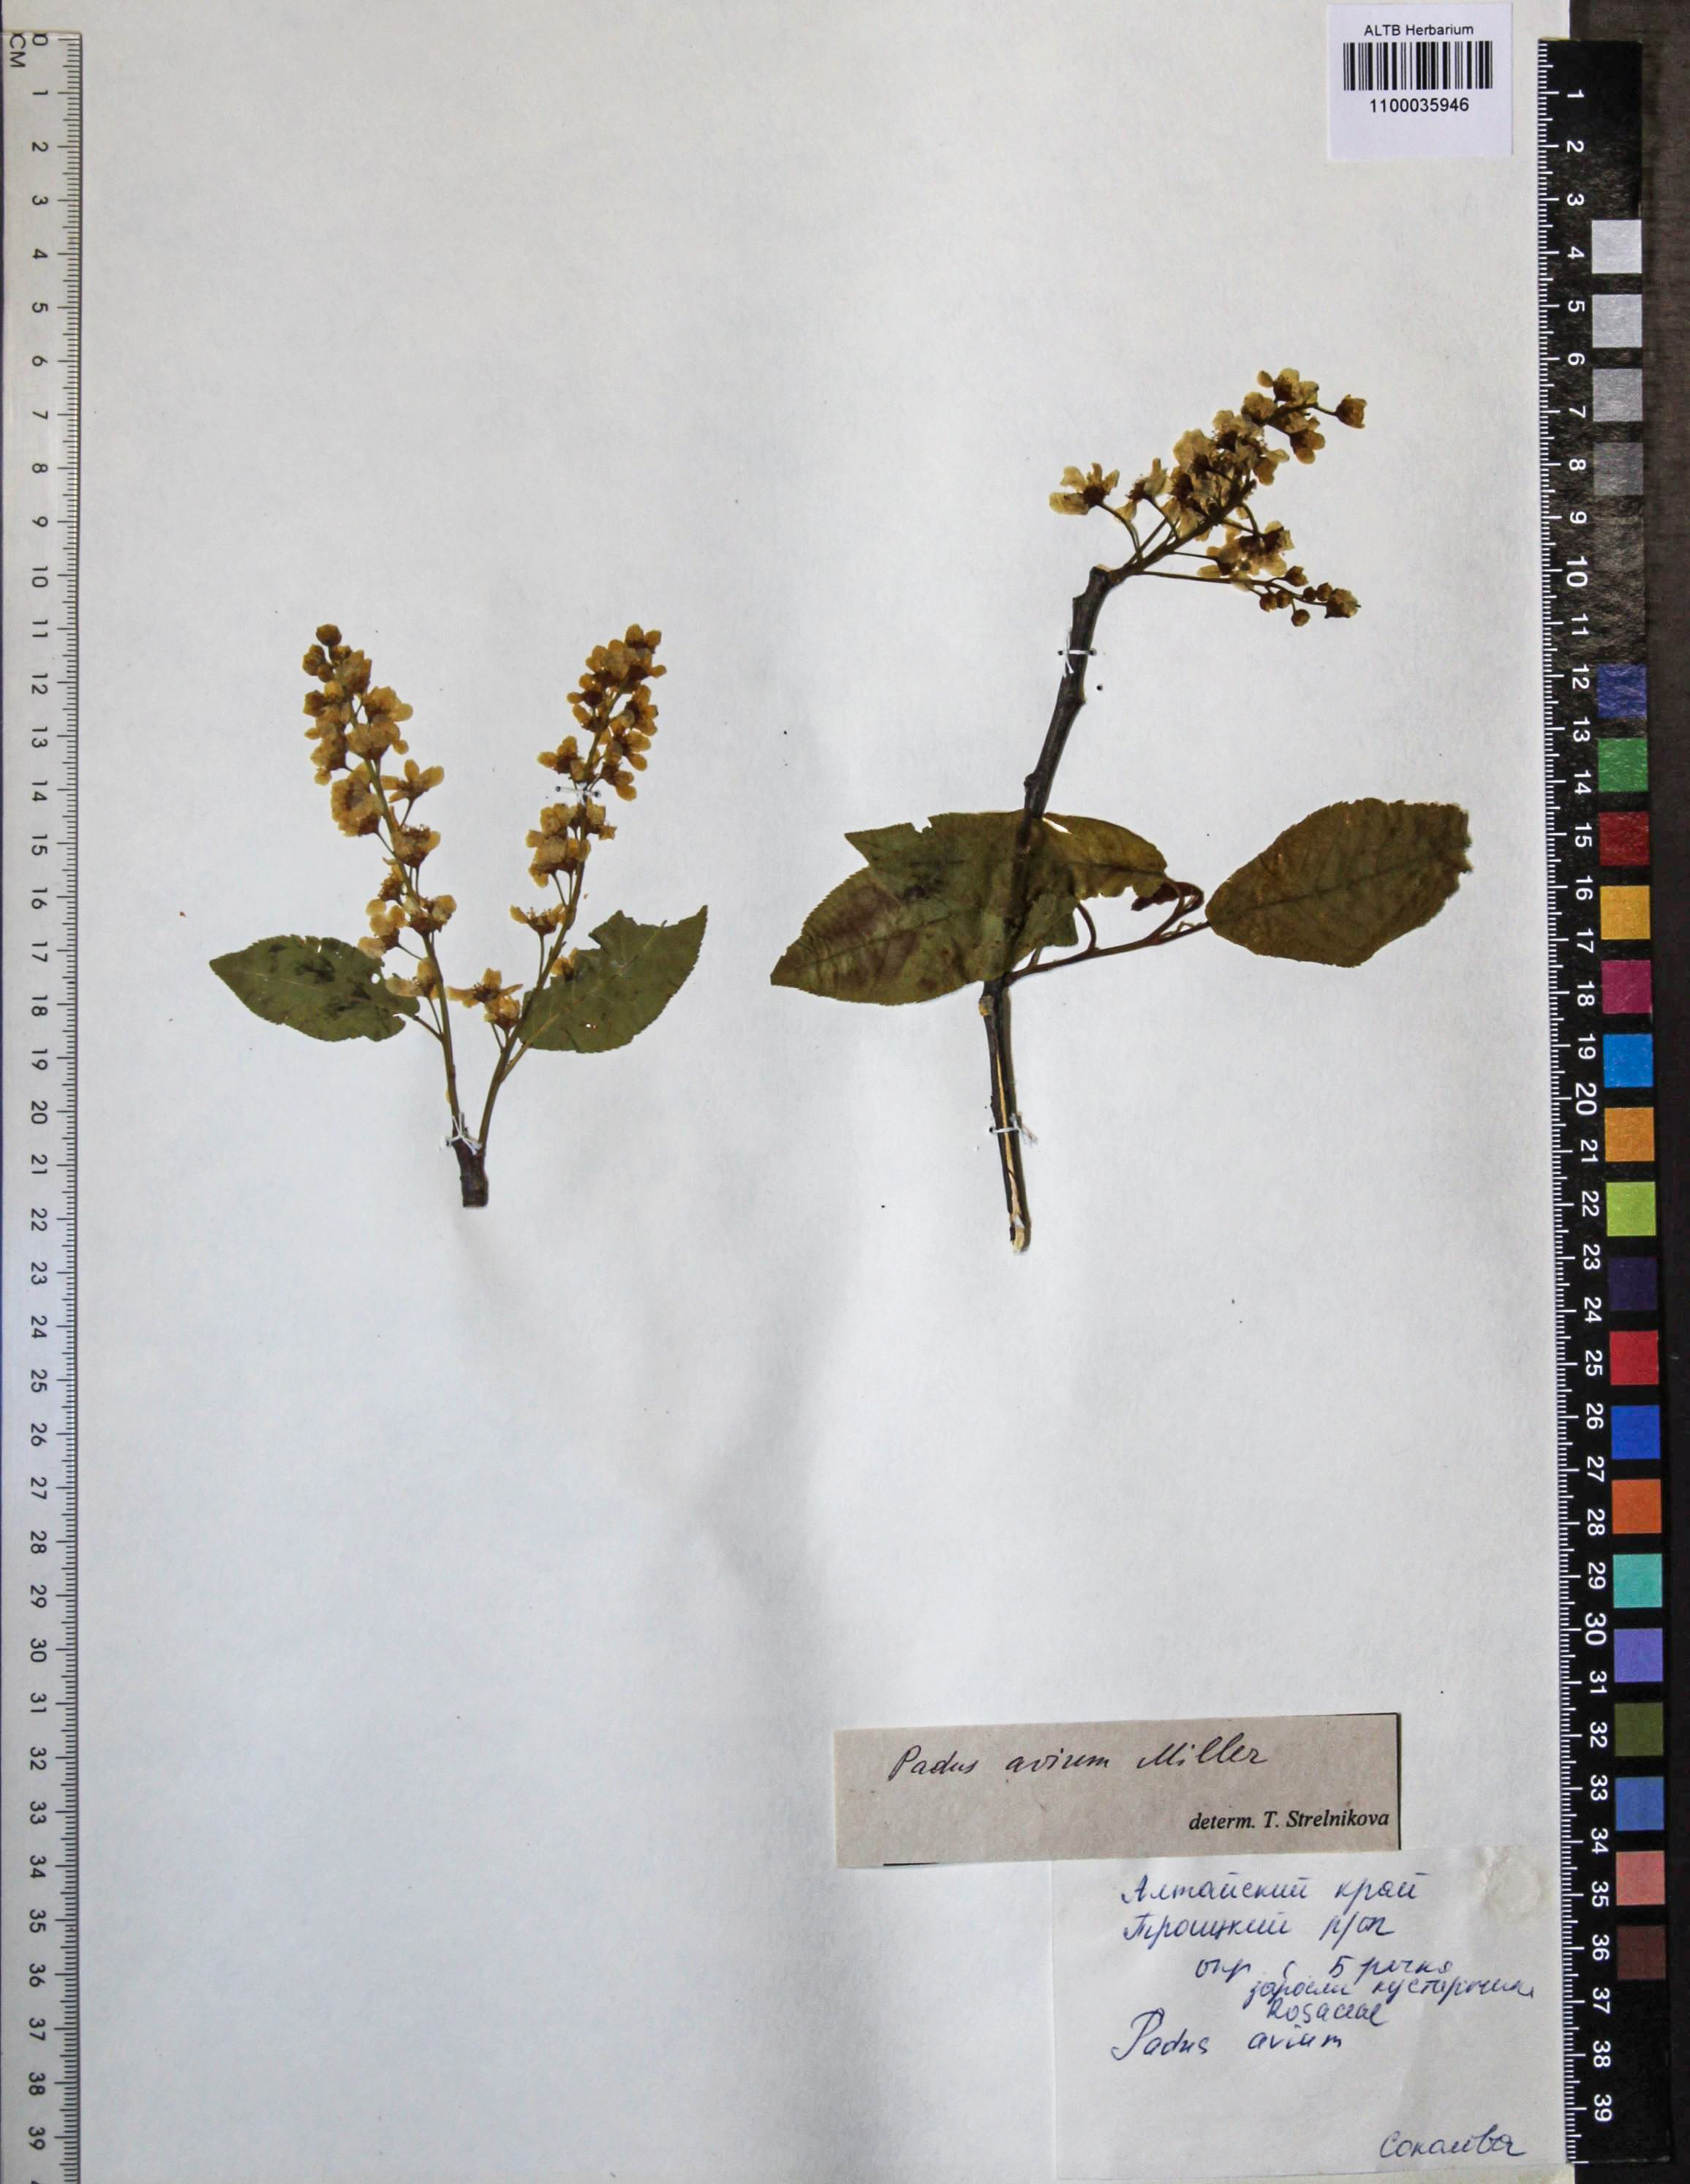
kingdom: Plantae
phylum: Tracheophyta
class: Magnoliopsida
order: Rosales
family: Rosaceae
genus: Prunus
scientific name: Prunus padus
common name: Bird cherry
